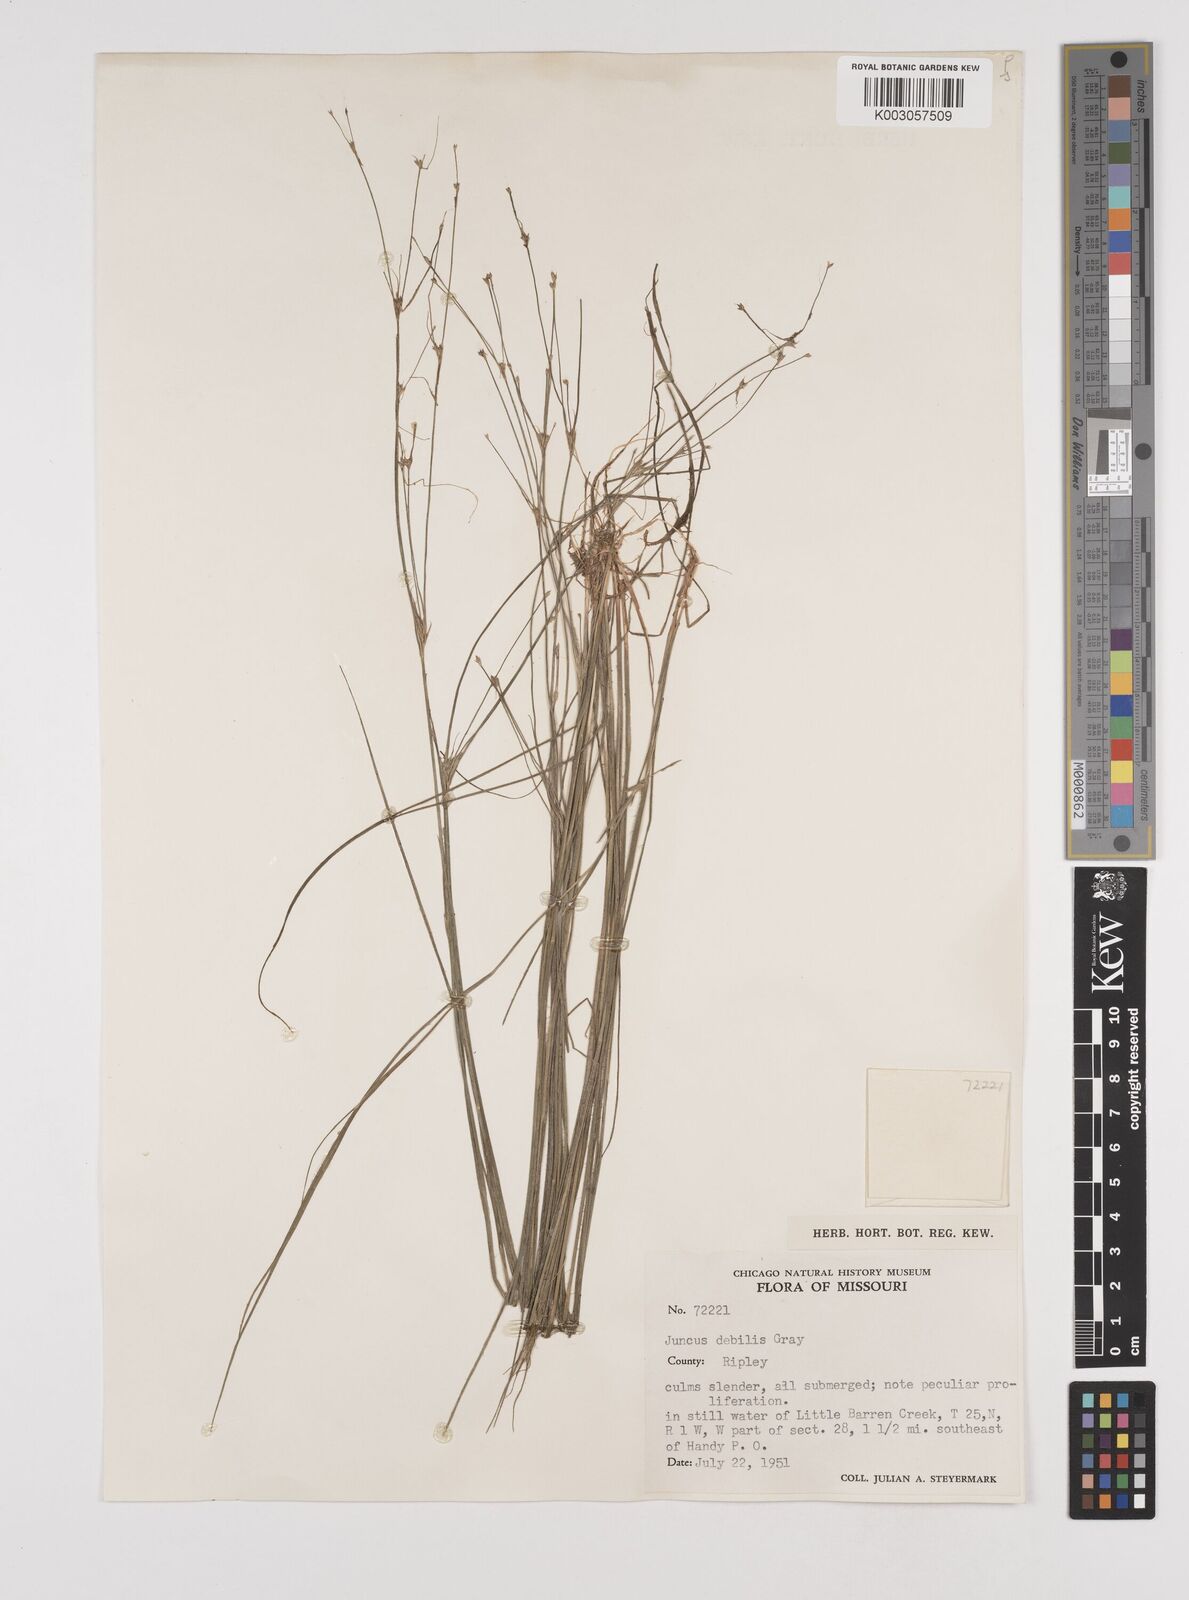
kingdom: Plantae
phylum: Tracheophyta
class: Liliopsida
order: Poales
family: Juncaceae
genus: Juncus
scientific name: Juncus debilis
